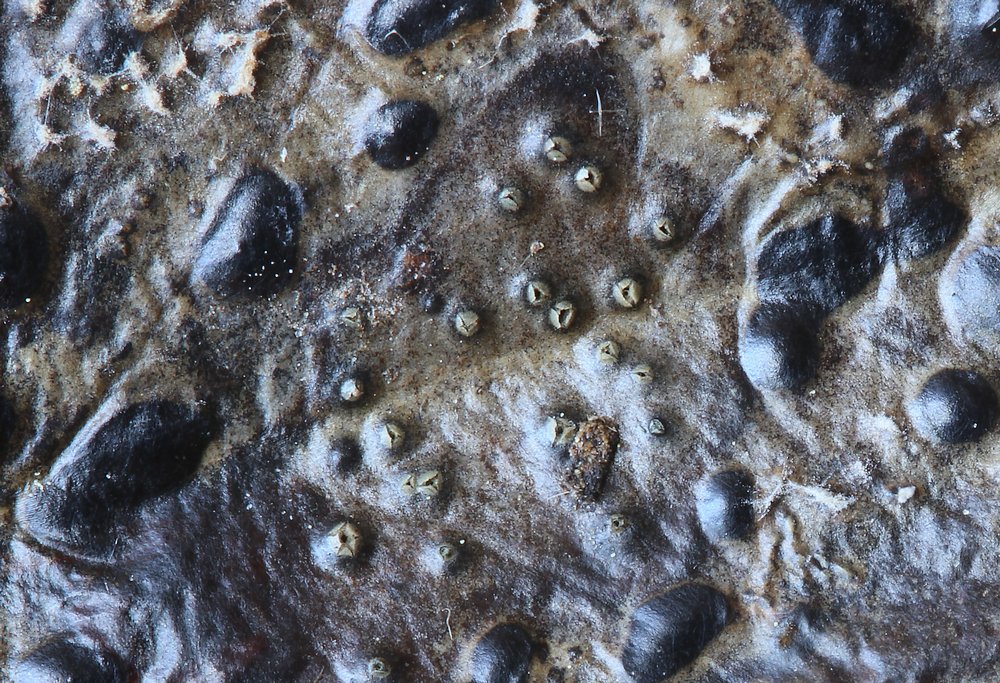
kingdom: Fungi
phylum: Ascomycota
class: Leotiomycetes
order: Phacidiales
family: Phacidiaceae
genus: Phacidium
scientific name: Phacidium lauri
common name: kristtorn-tandskive
